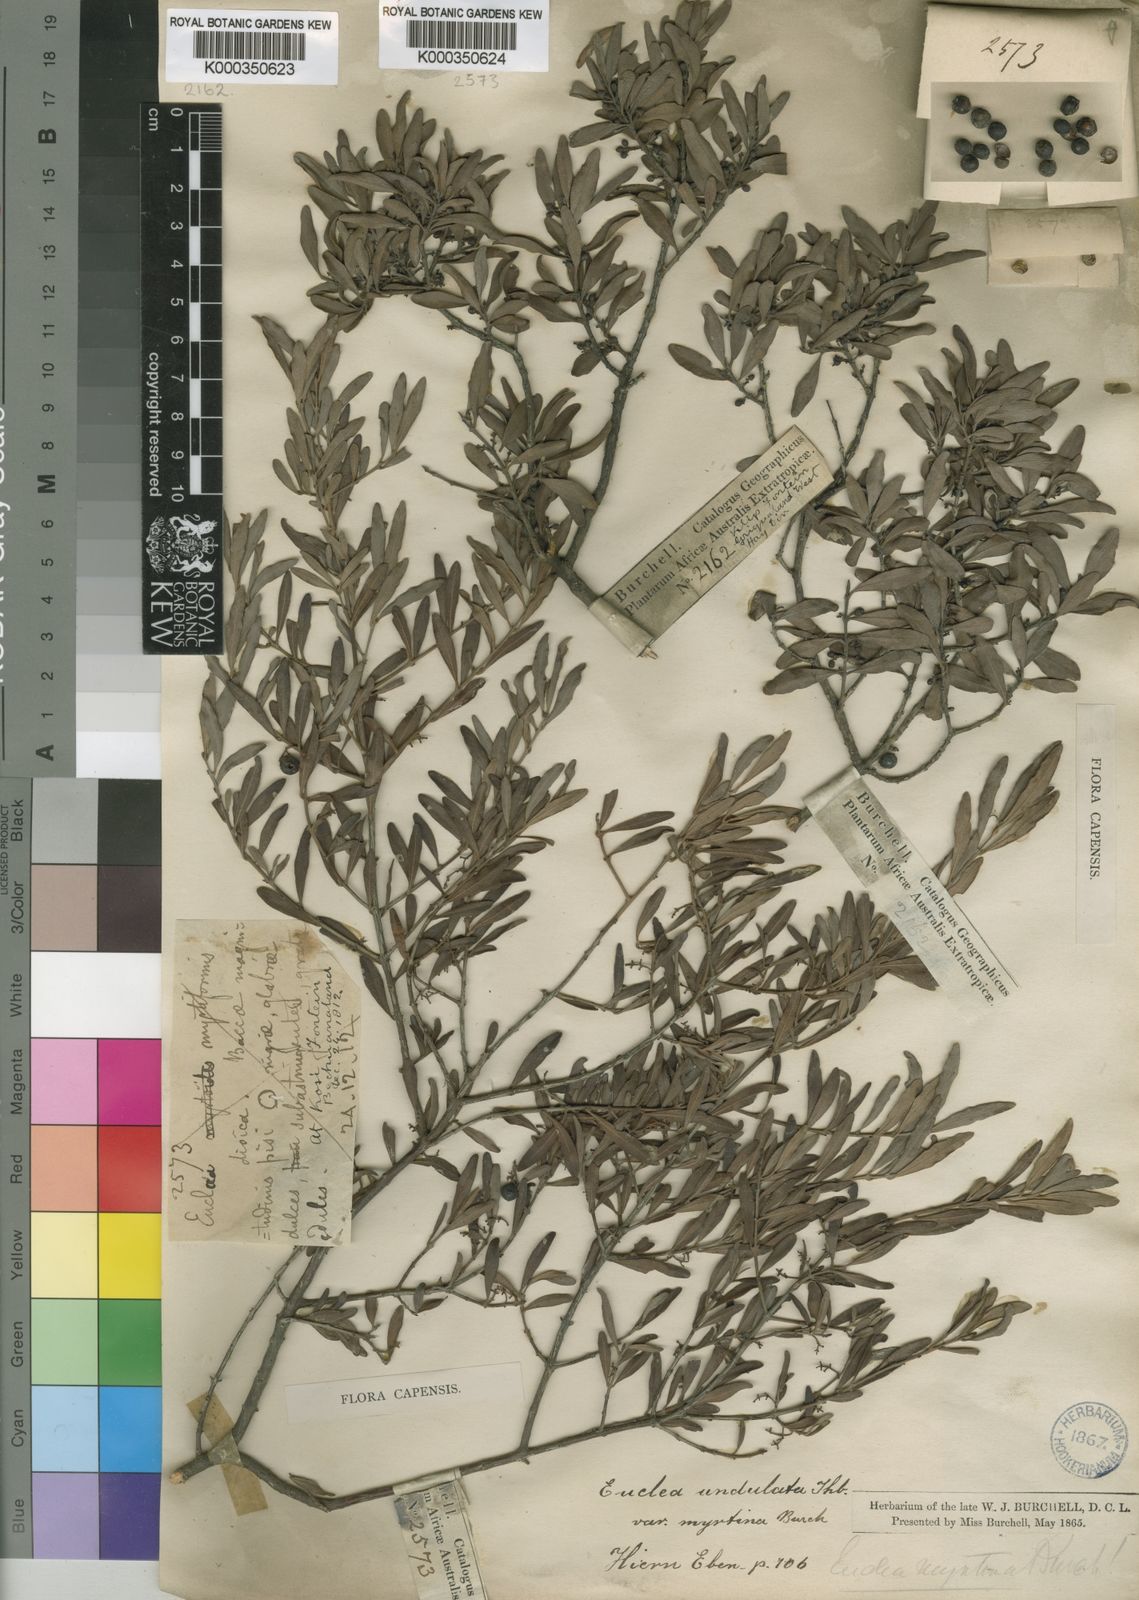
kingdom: Plantae
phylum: Tracheophyta
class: Magnoliopsida
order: Ericales
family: Ebenaceae
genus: Euclea
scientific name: Euclea undulata
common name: Small-leaved guarri
